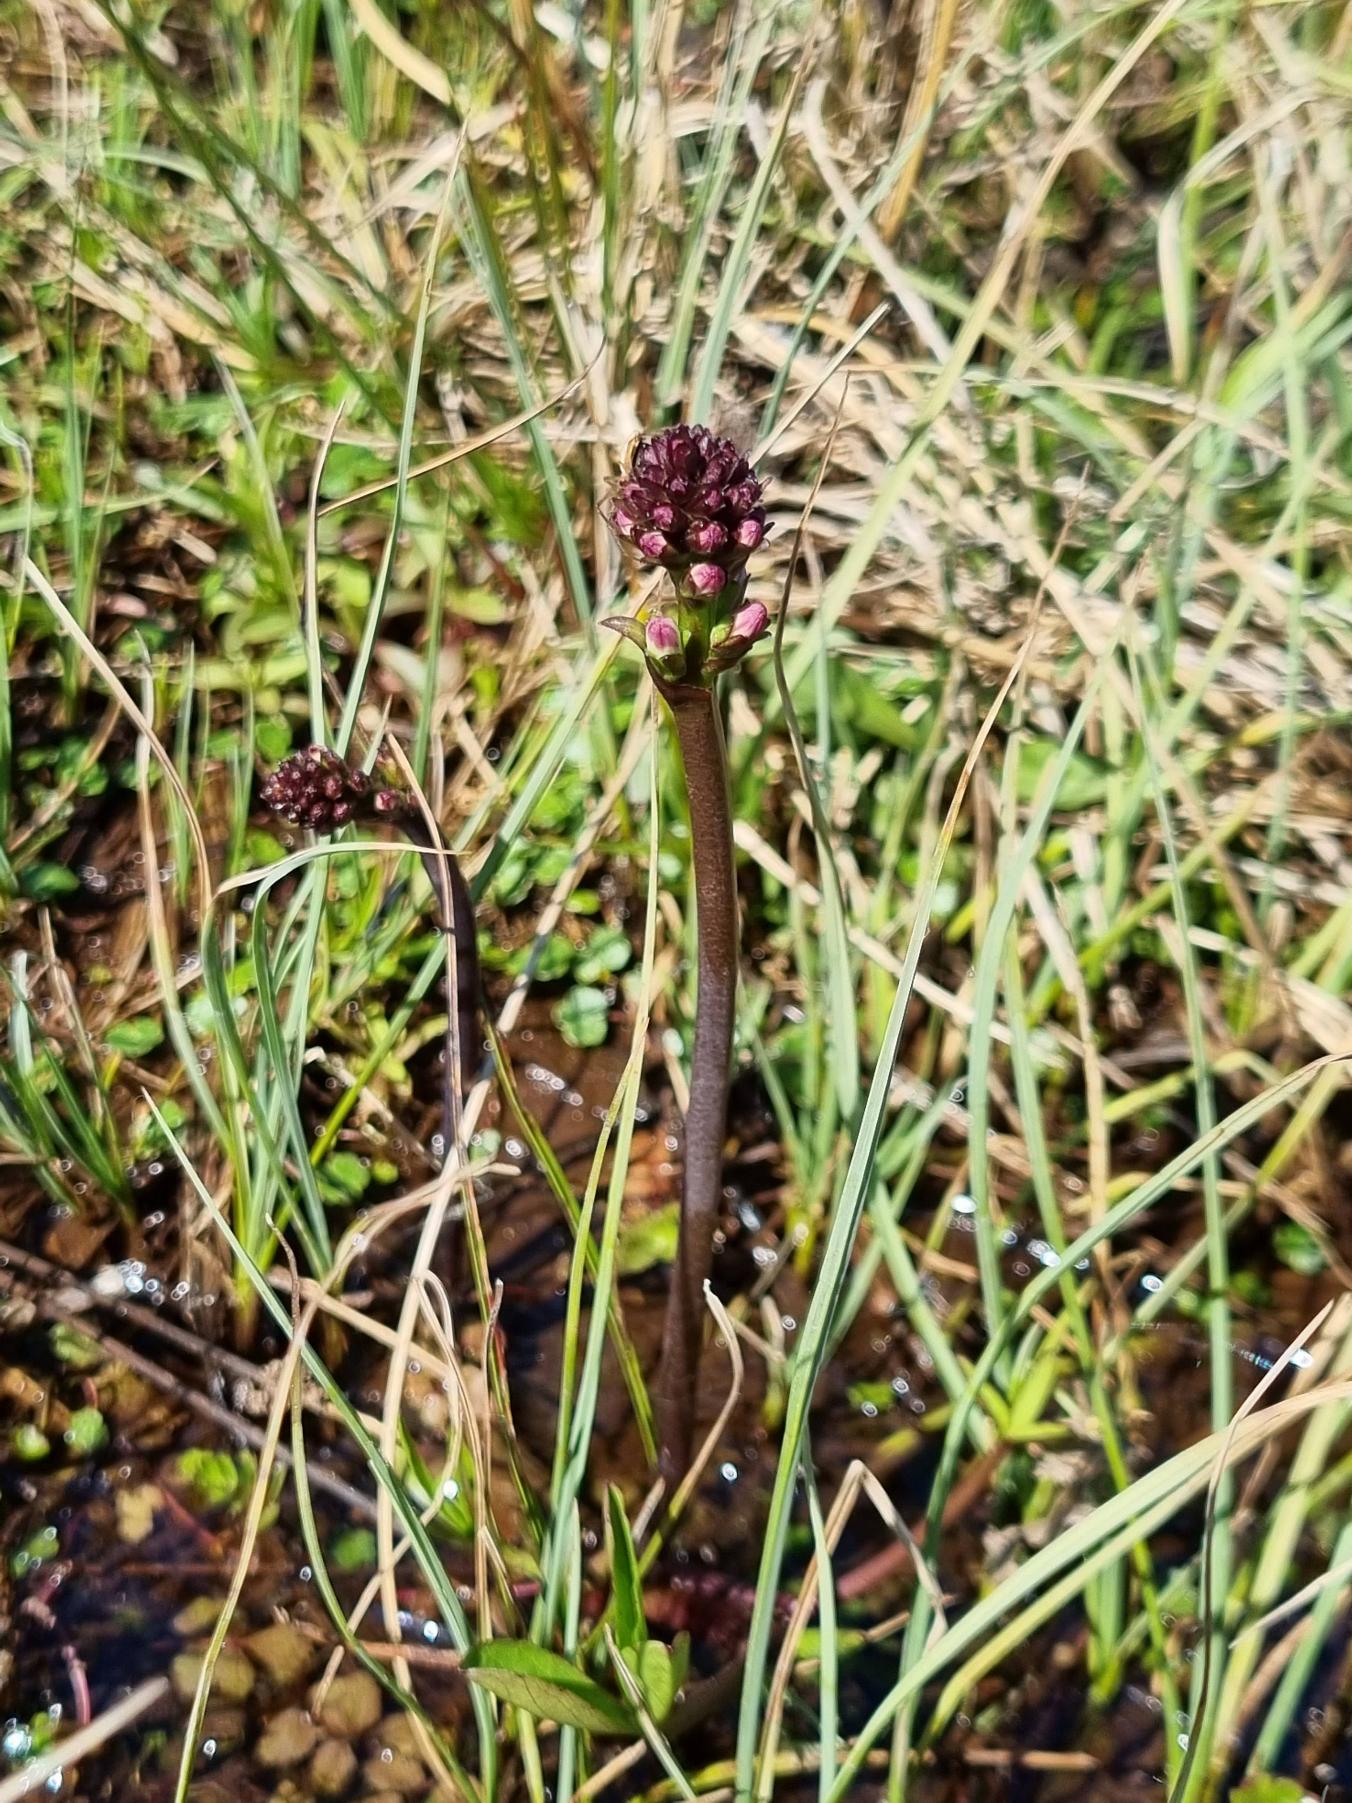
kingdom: Plantae
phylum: Tracheophyta
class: Magnoliopsida
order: Asterales
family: Menyanthaceae
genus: Menyanthes
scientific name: Menyanthes trifoliata
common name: Bukkeblad
